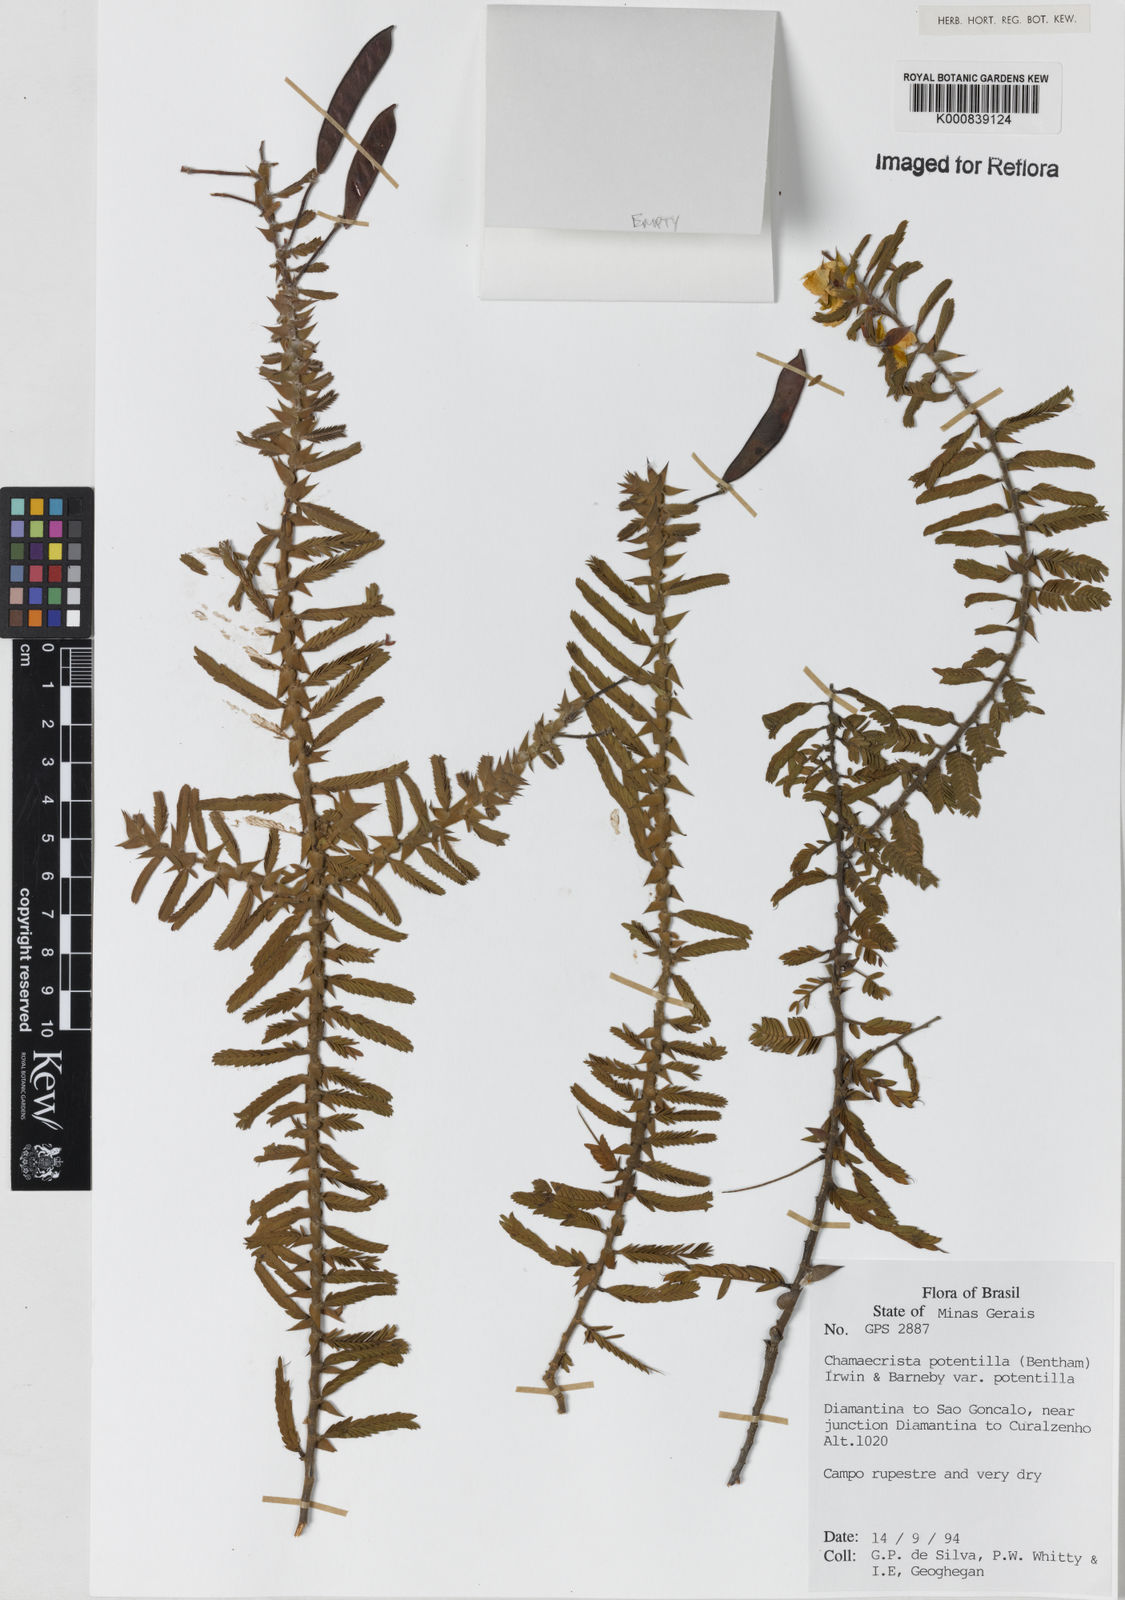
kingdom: Plantae
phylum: Tracheophyta
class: Magnoliopsida
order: Fabales
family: Fabaceae
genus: Chamaecrista
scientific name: Chamaecrista potentilla
